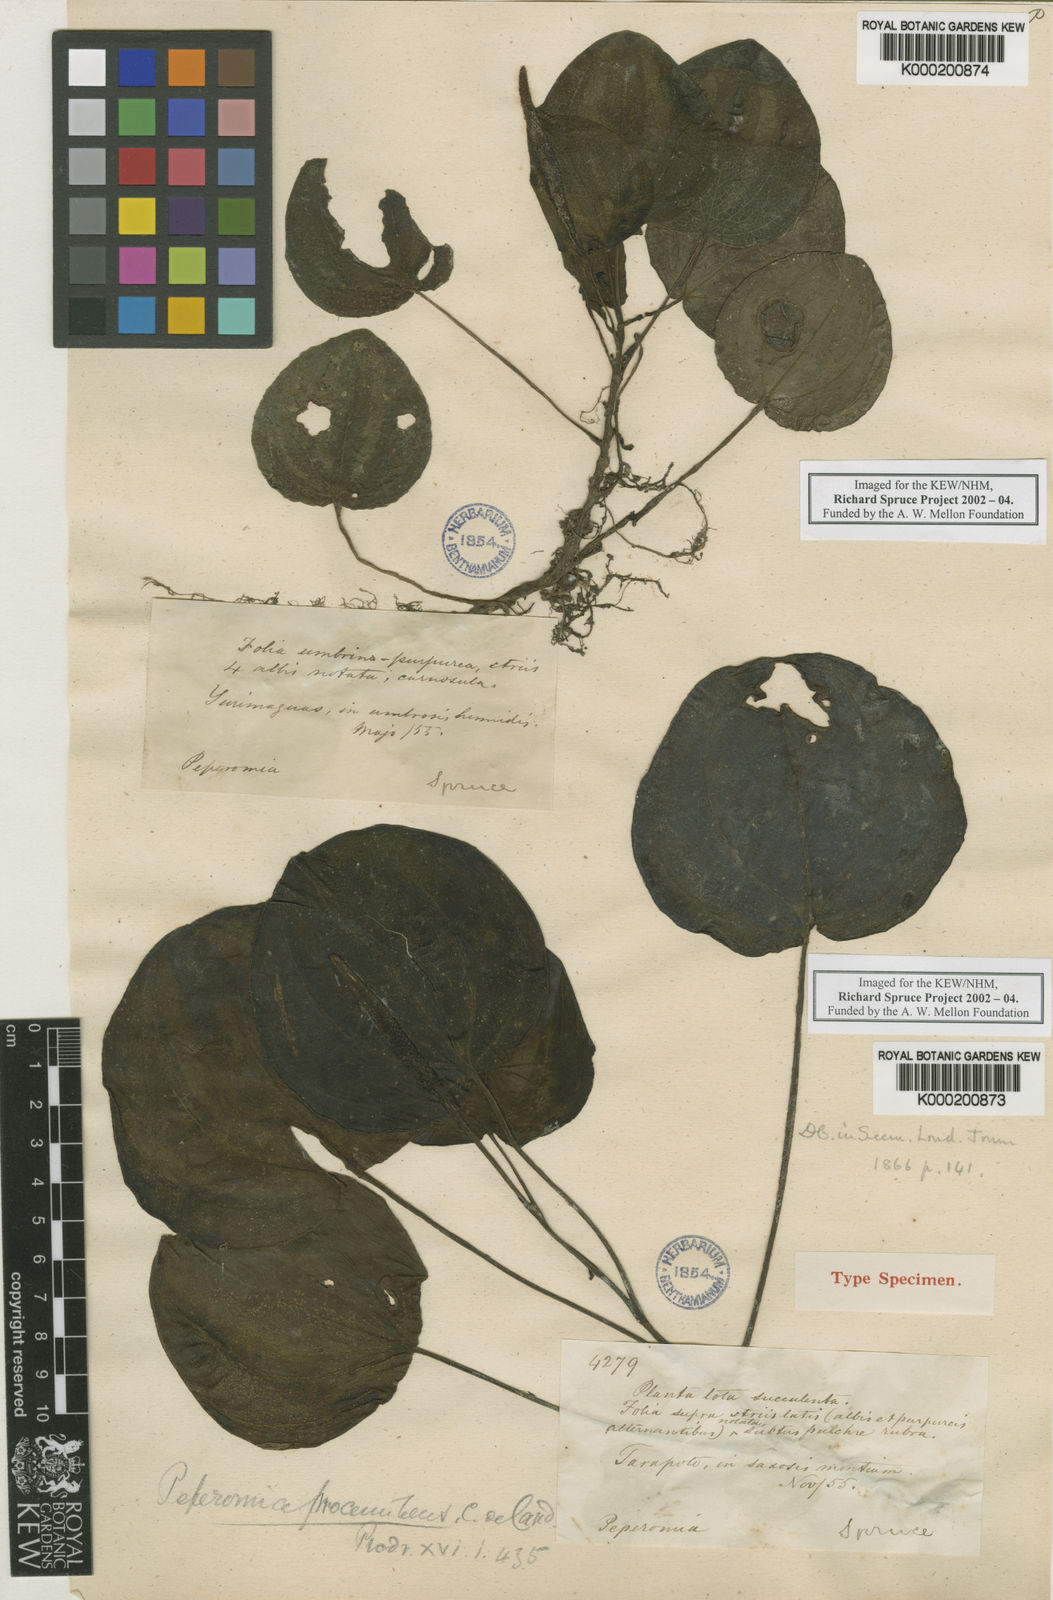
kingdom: Plantae
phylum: Tracheophyta
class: Magnoliopsida
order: Piperales
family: Piperaceae
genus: Peperomia
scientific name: Peperomia procumbens
